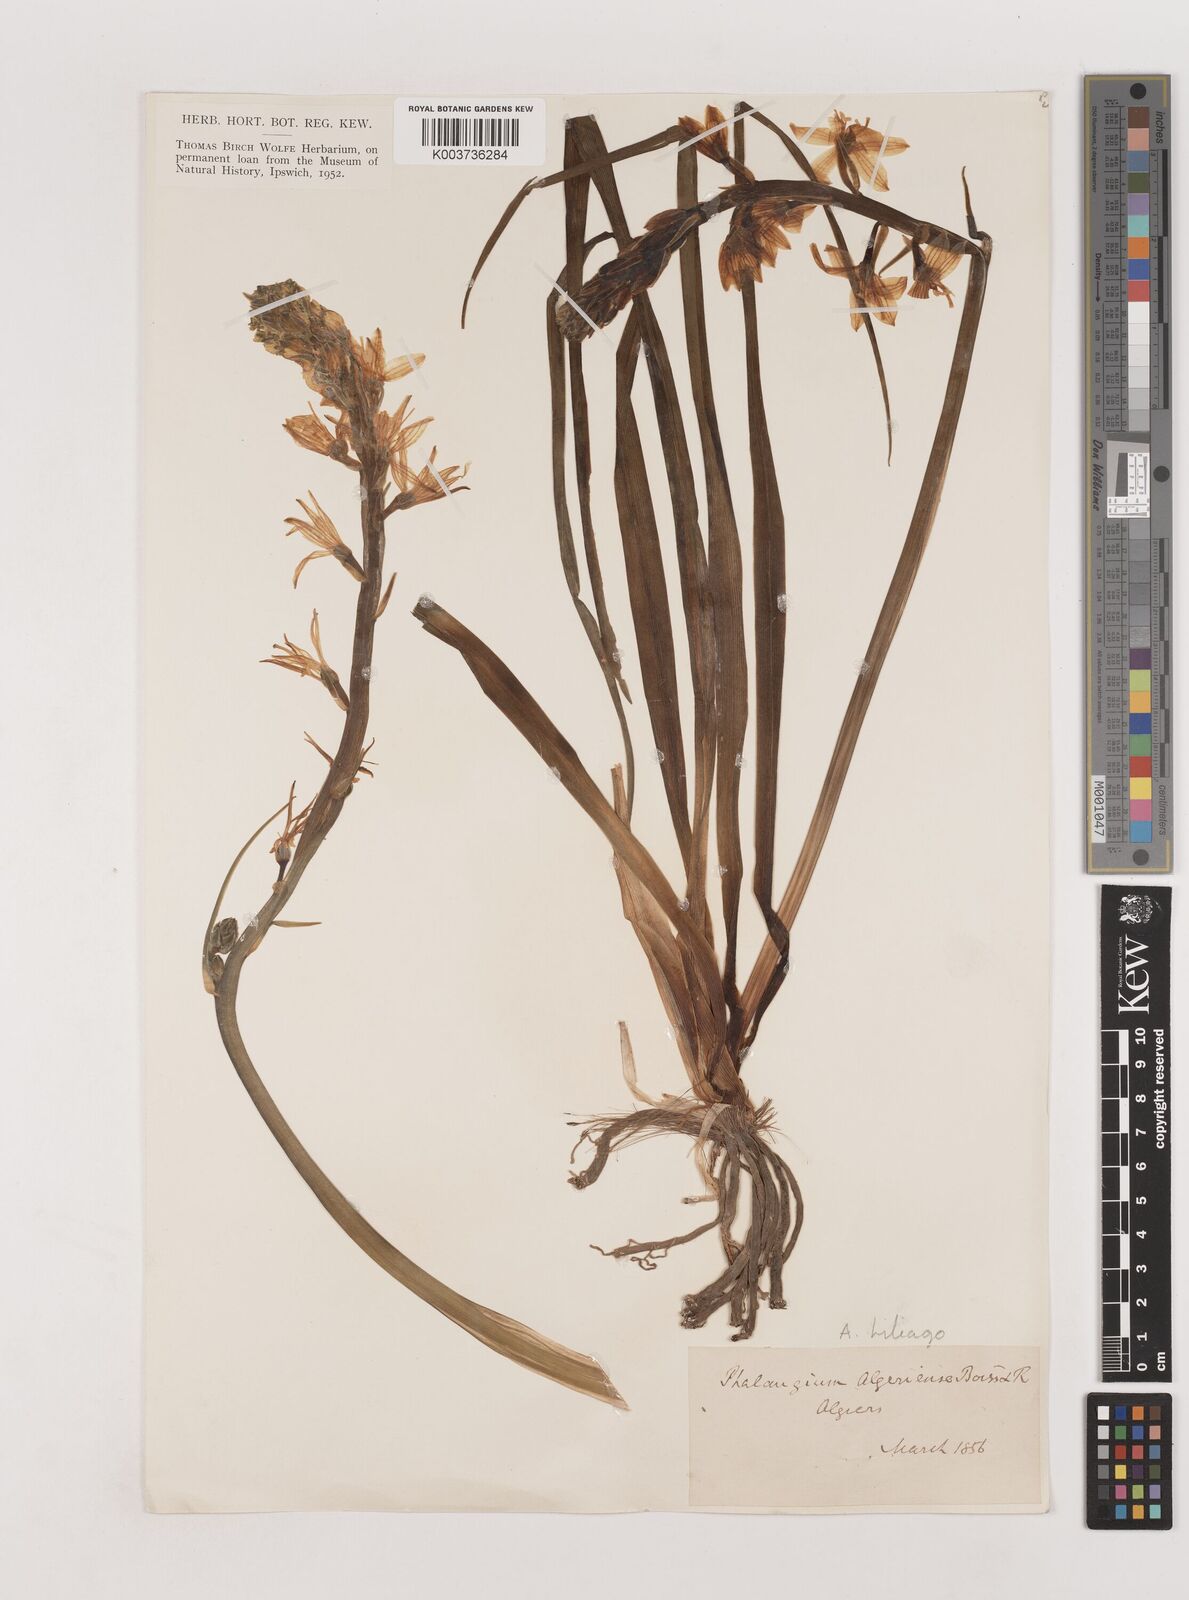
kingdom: Plantae
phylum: Tracheophyta
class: Liliopsida
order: Asparagales
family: Asparagaceae
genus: Anthericum
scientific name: Anthericum liliago
